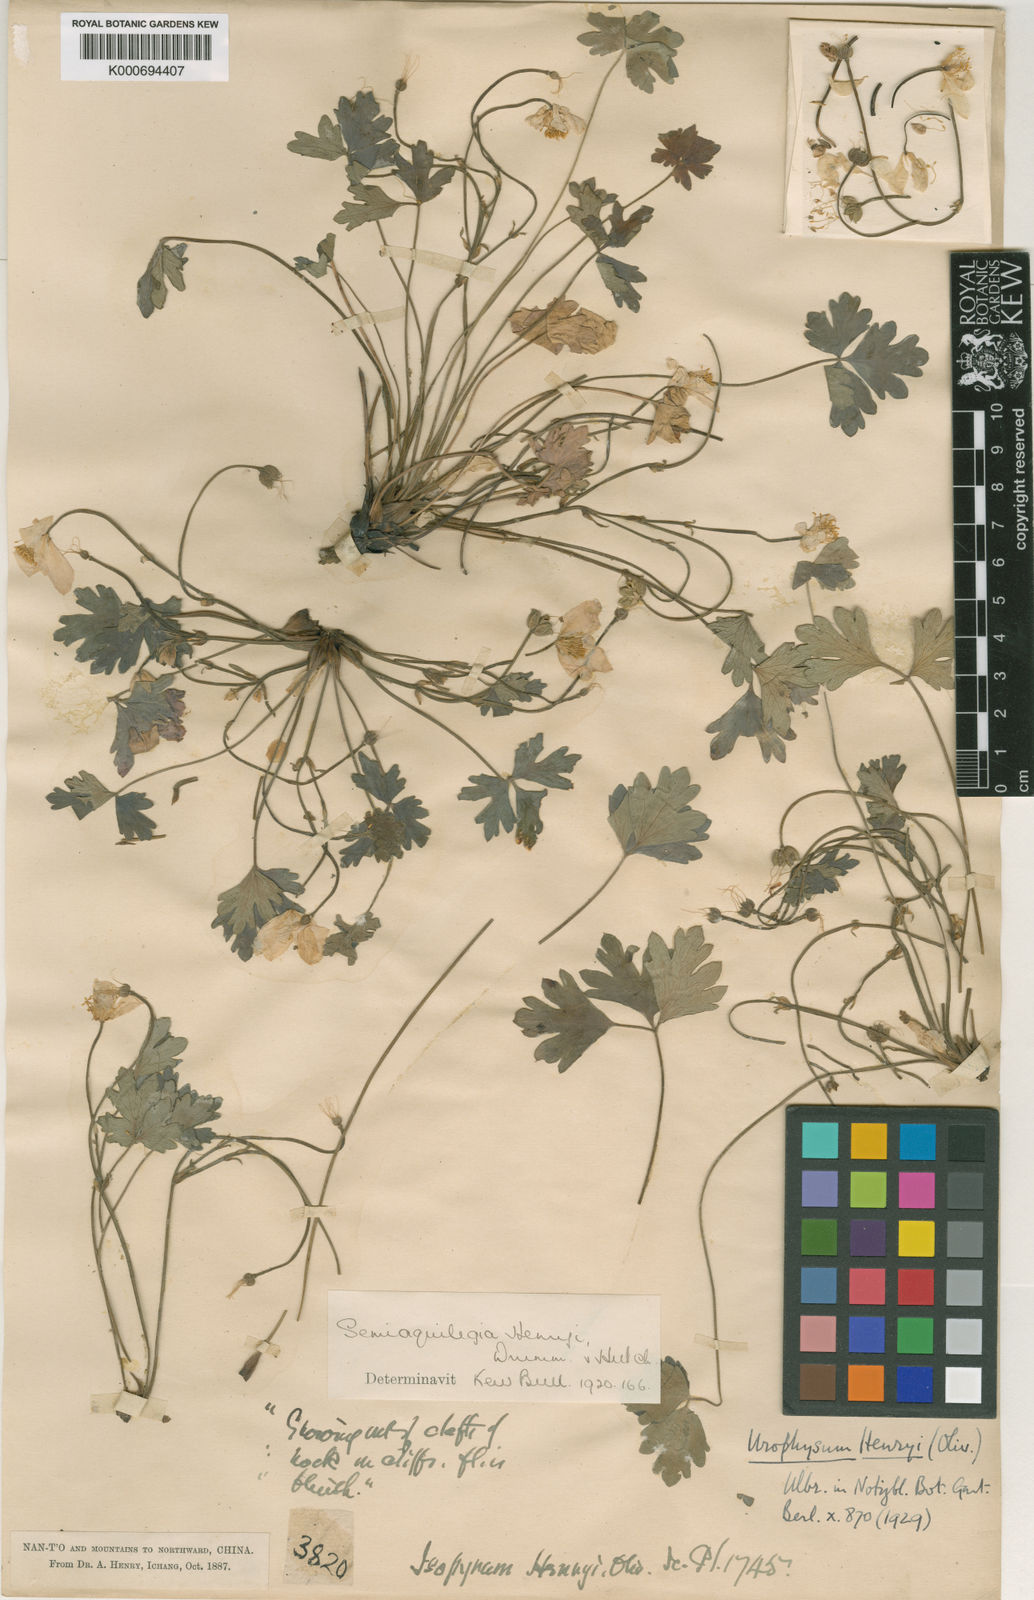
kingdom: Plantae
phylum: Tracheophyta
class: Magnoliopsida
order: Ranunculales
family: Ranunculaceae
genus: Urophysa
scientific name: Urophysa henryi
